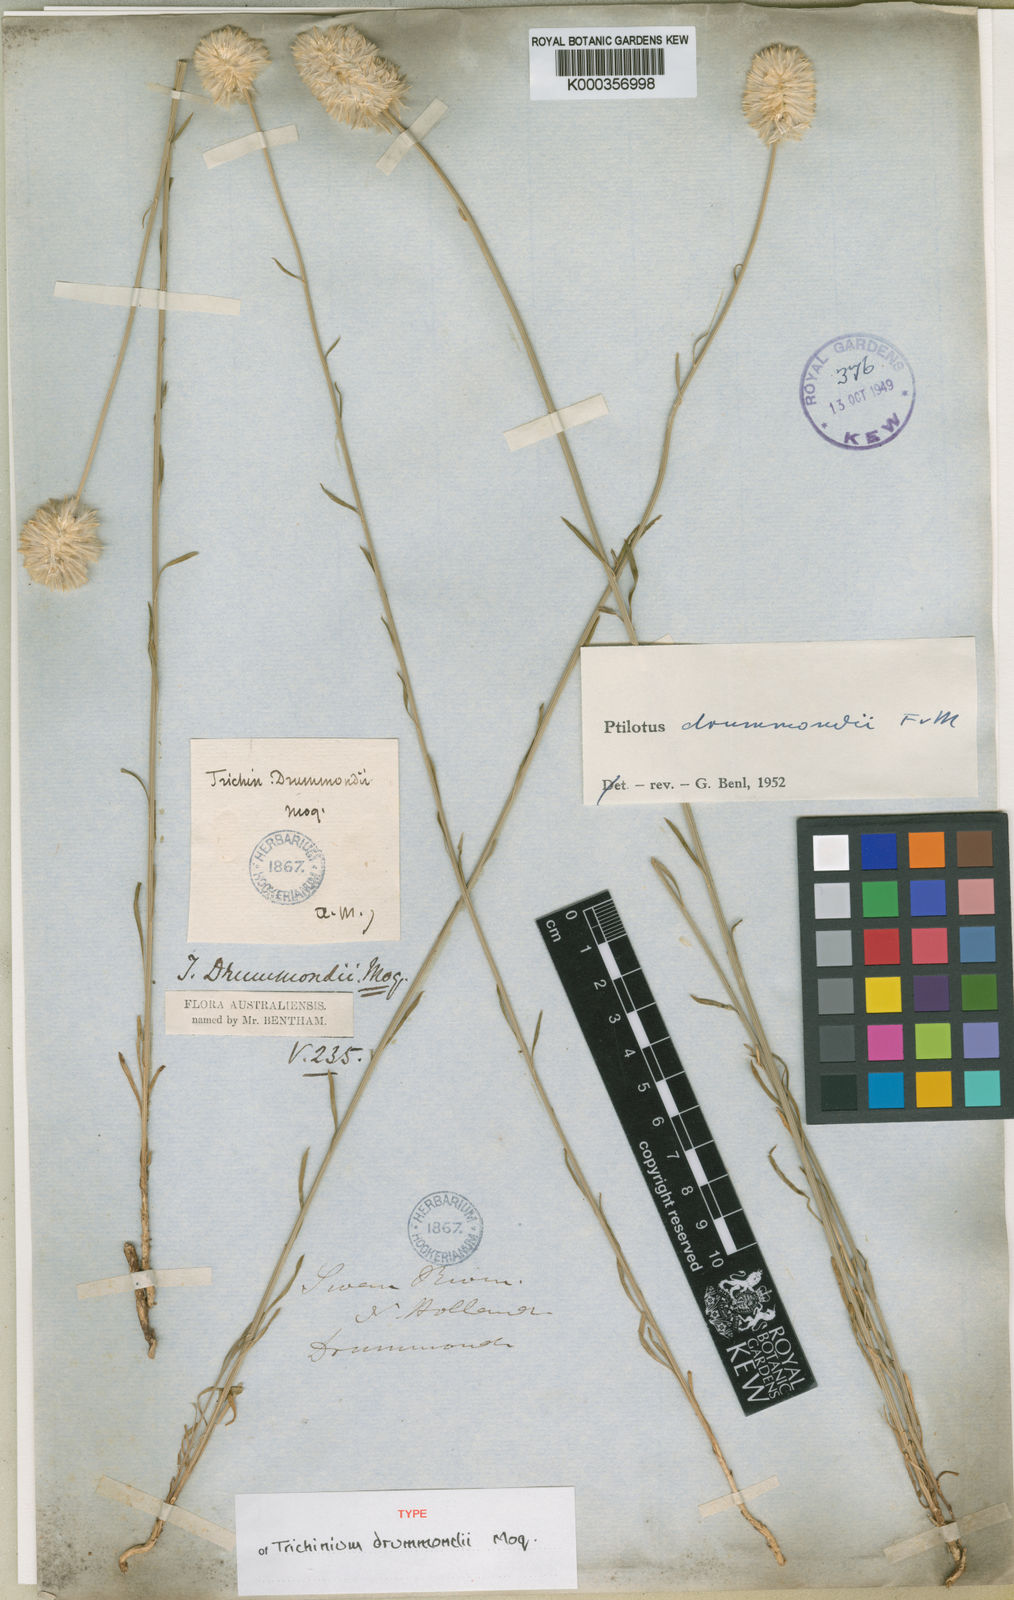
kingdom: Plantae
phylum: Tracheophyta
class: Magnoliopsida
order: Caryophyllales
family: Amaranthaceae
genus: Ptilotus
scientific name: Ptilotus drummondii
